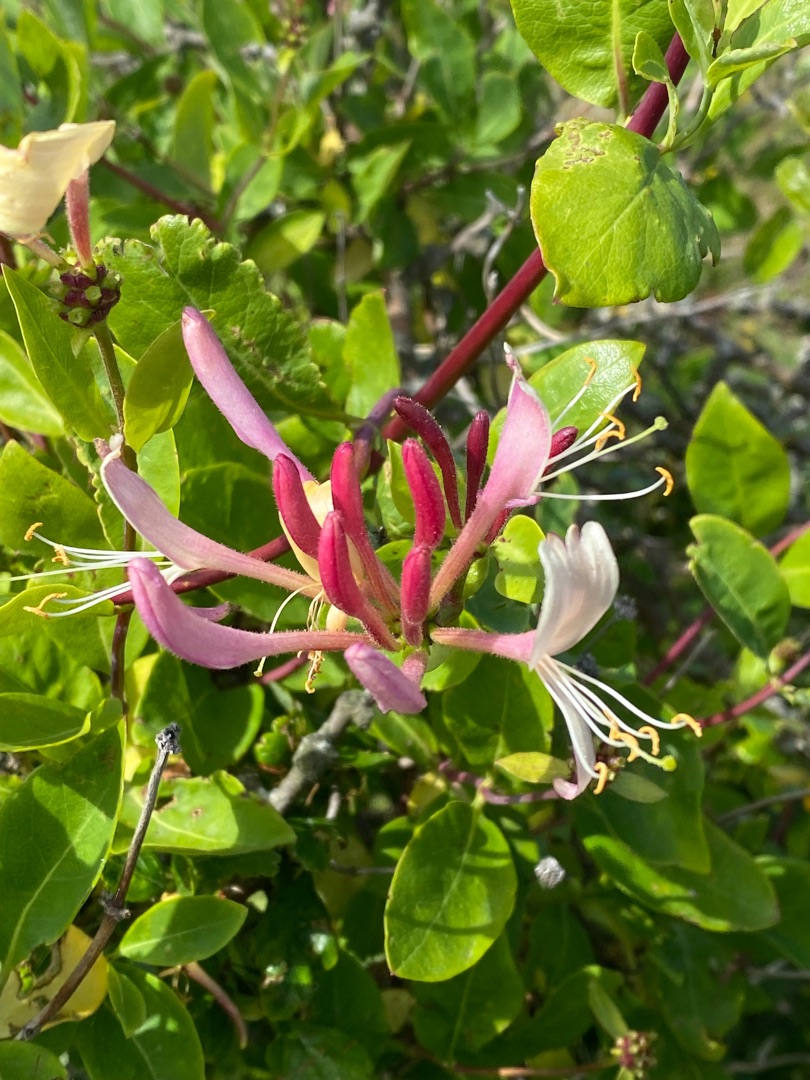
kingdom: Plantae
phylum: Tracheophyta
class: Magnoliopsida
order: Dipsacales
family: Caprifoliaceae
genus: Lonicera
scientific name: Lonicera periclymenum
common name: Almindelig gedeblad
